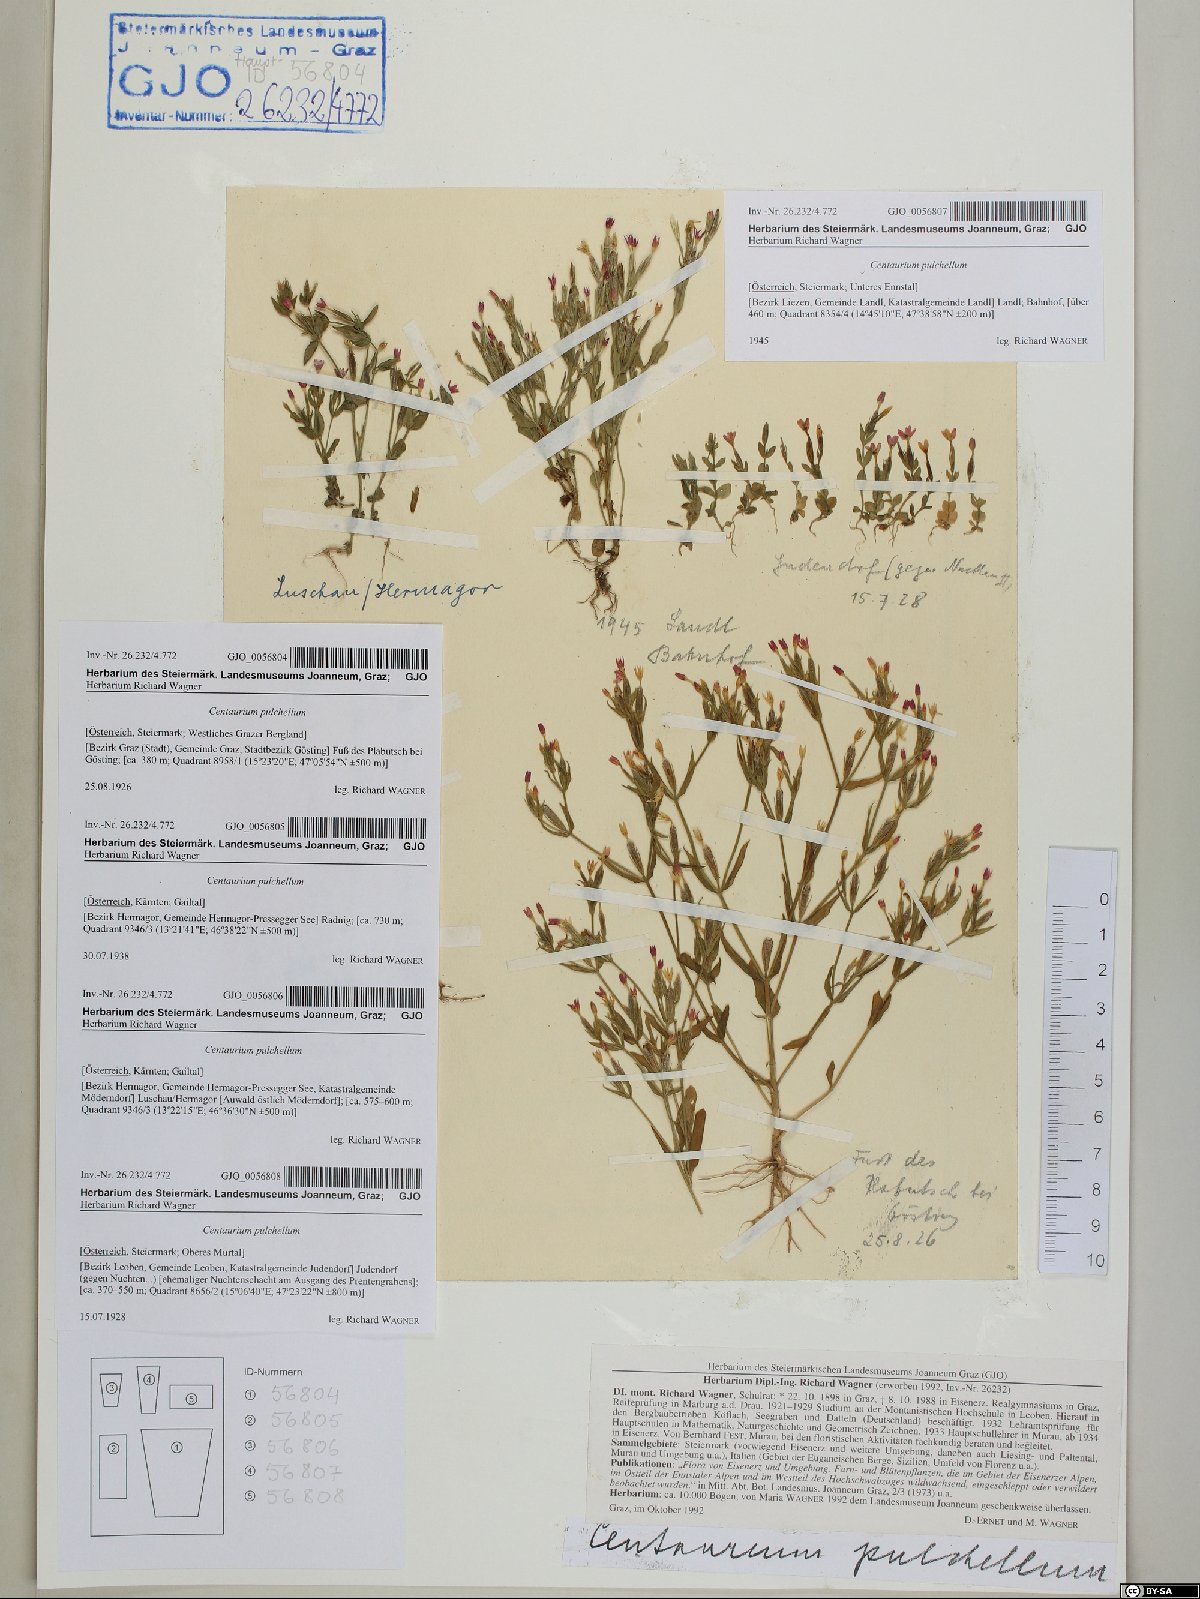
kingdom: Plantae
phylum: Tracheophyta
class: Magnoliopsida
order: Gentianales
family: Gentianaceae
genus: Centaurium
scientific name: Centaurium pulchellum
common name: Lesser centaury
